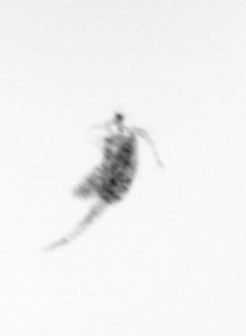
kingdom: Animalia
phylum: Arthropoda
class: Copepoda
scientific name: Copepoda
